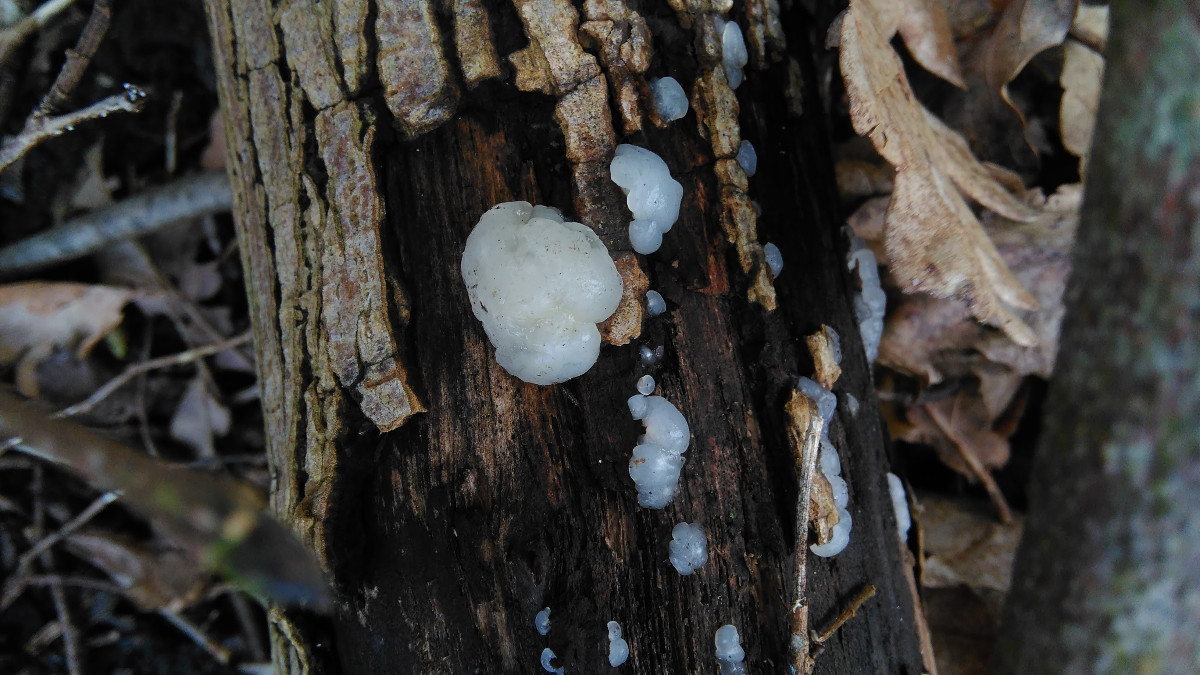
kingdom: Fungi
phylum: Basidiomycota
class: Agaricomycetes
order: Auriculariales
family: Hyaloriaceae
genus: Myxarium
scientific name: Myxarium nucleatum
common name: klar bævretop
